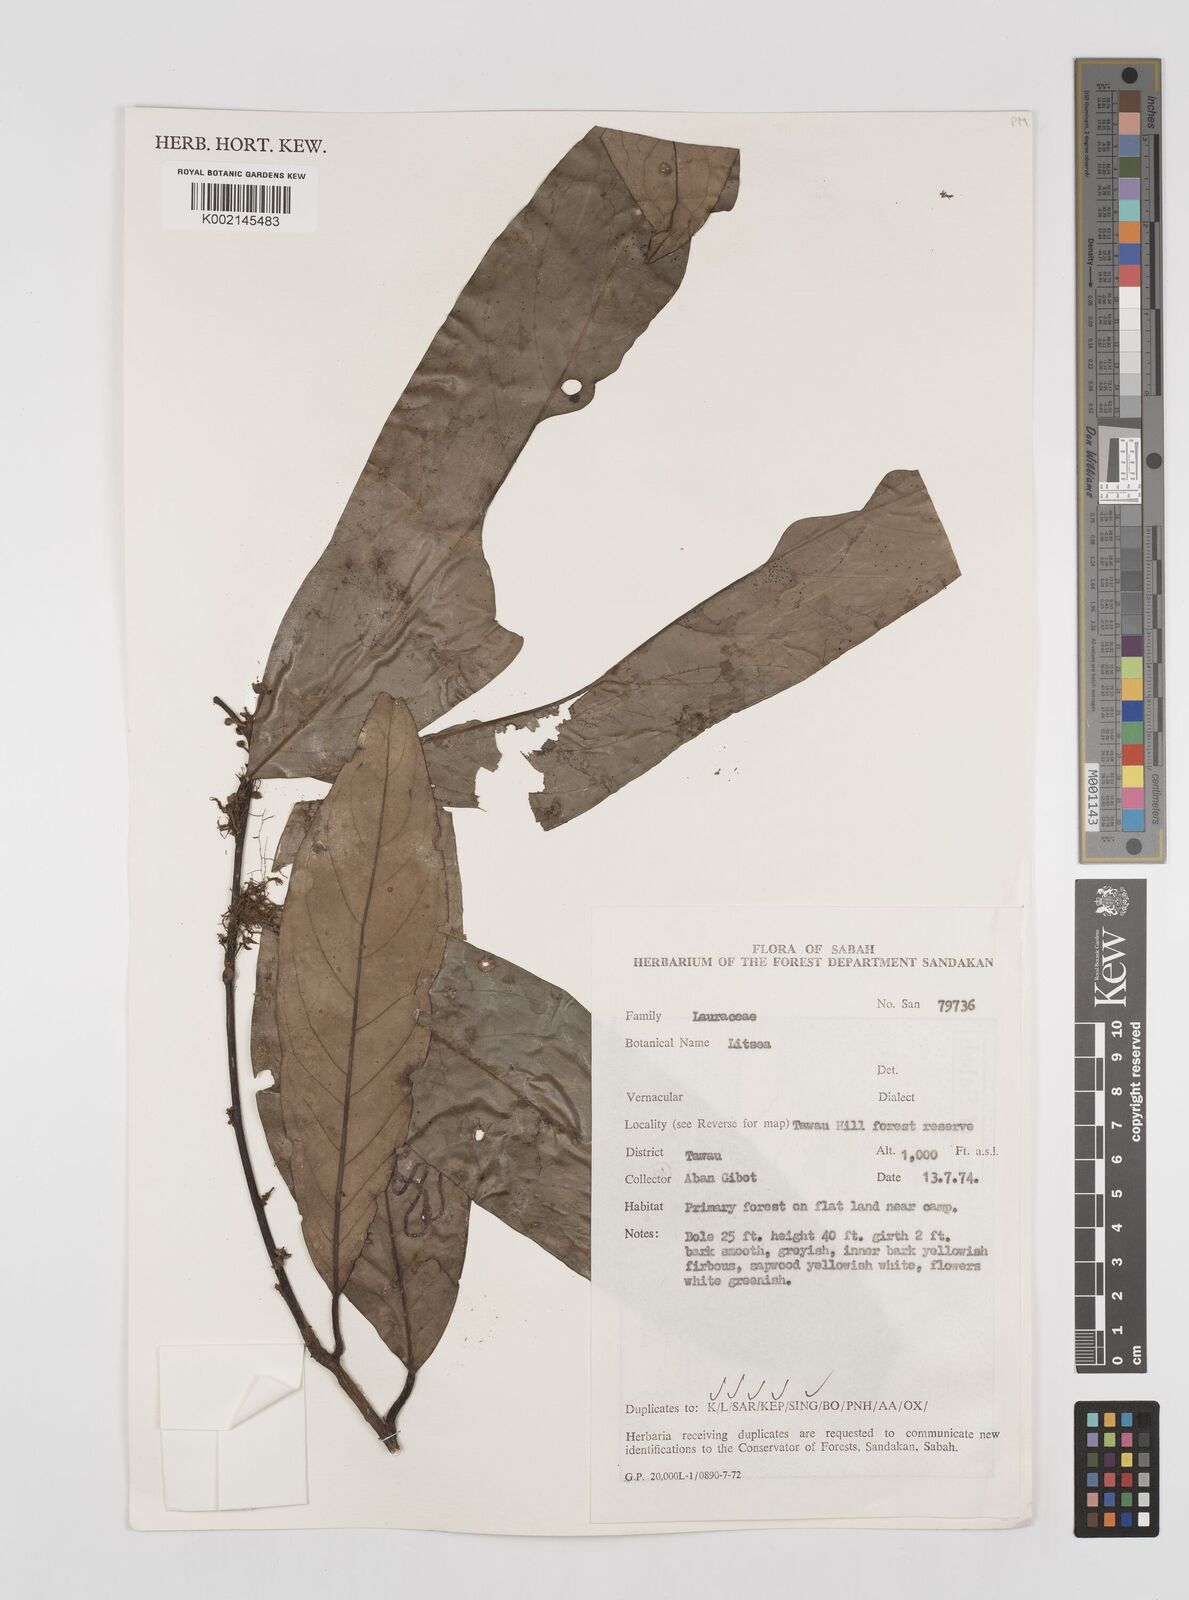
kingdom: Plantae
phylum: Tracheophyta
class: Magnoliopsida
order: Laurales
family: Lauraceae
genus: Litsea
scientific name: Litsea
